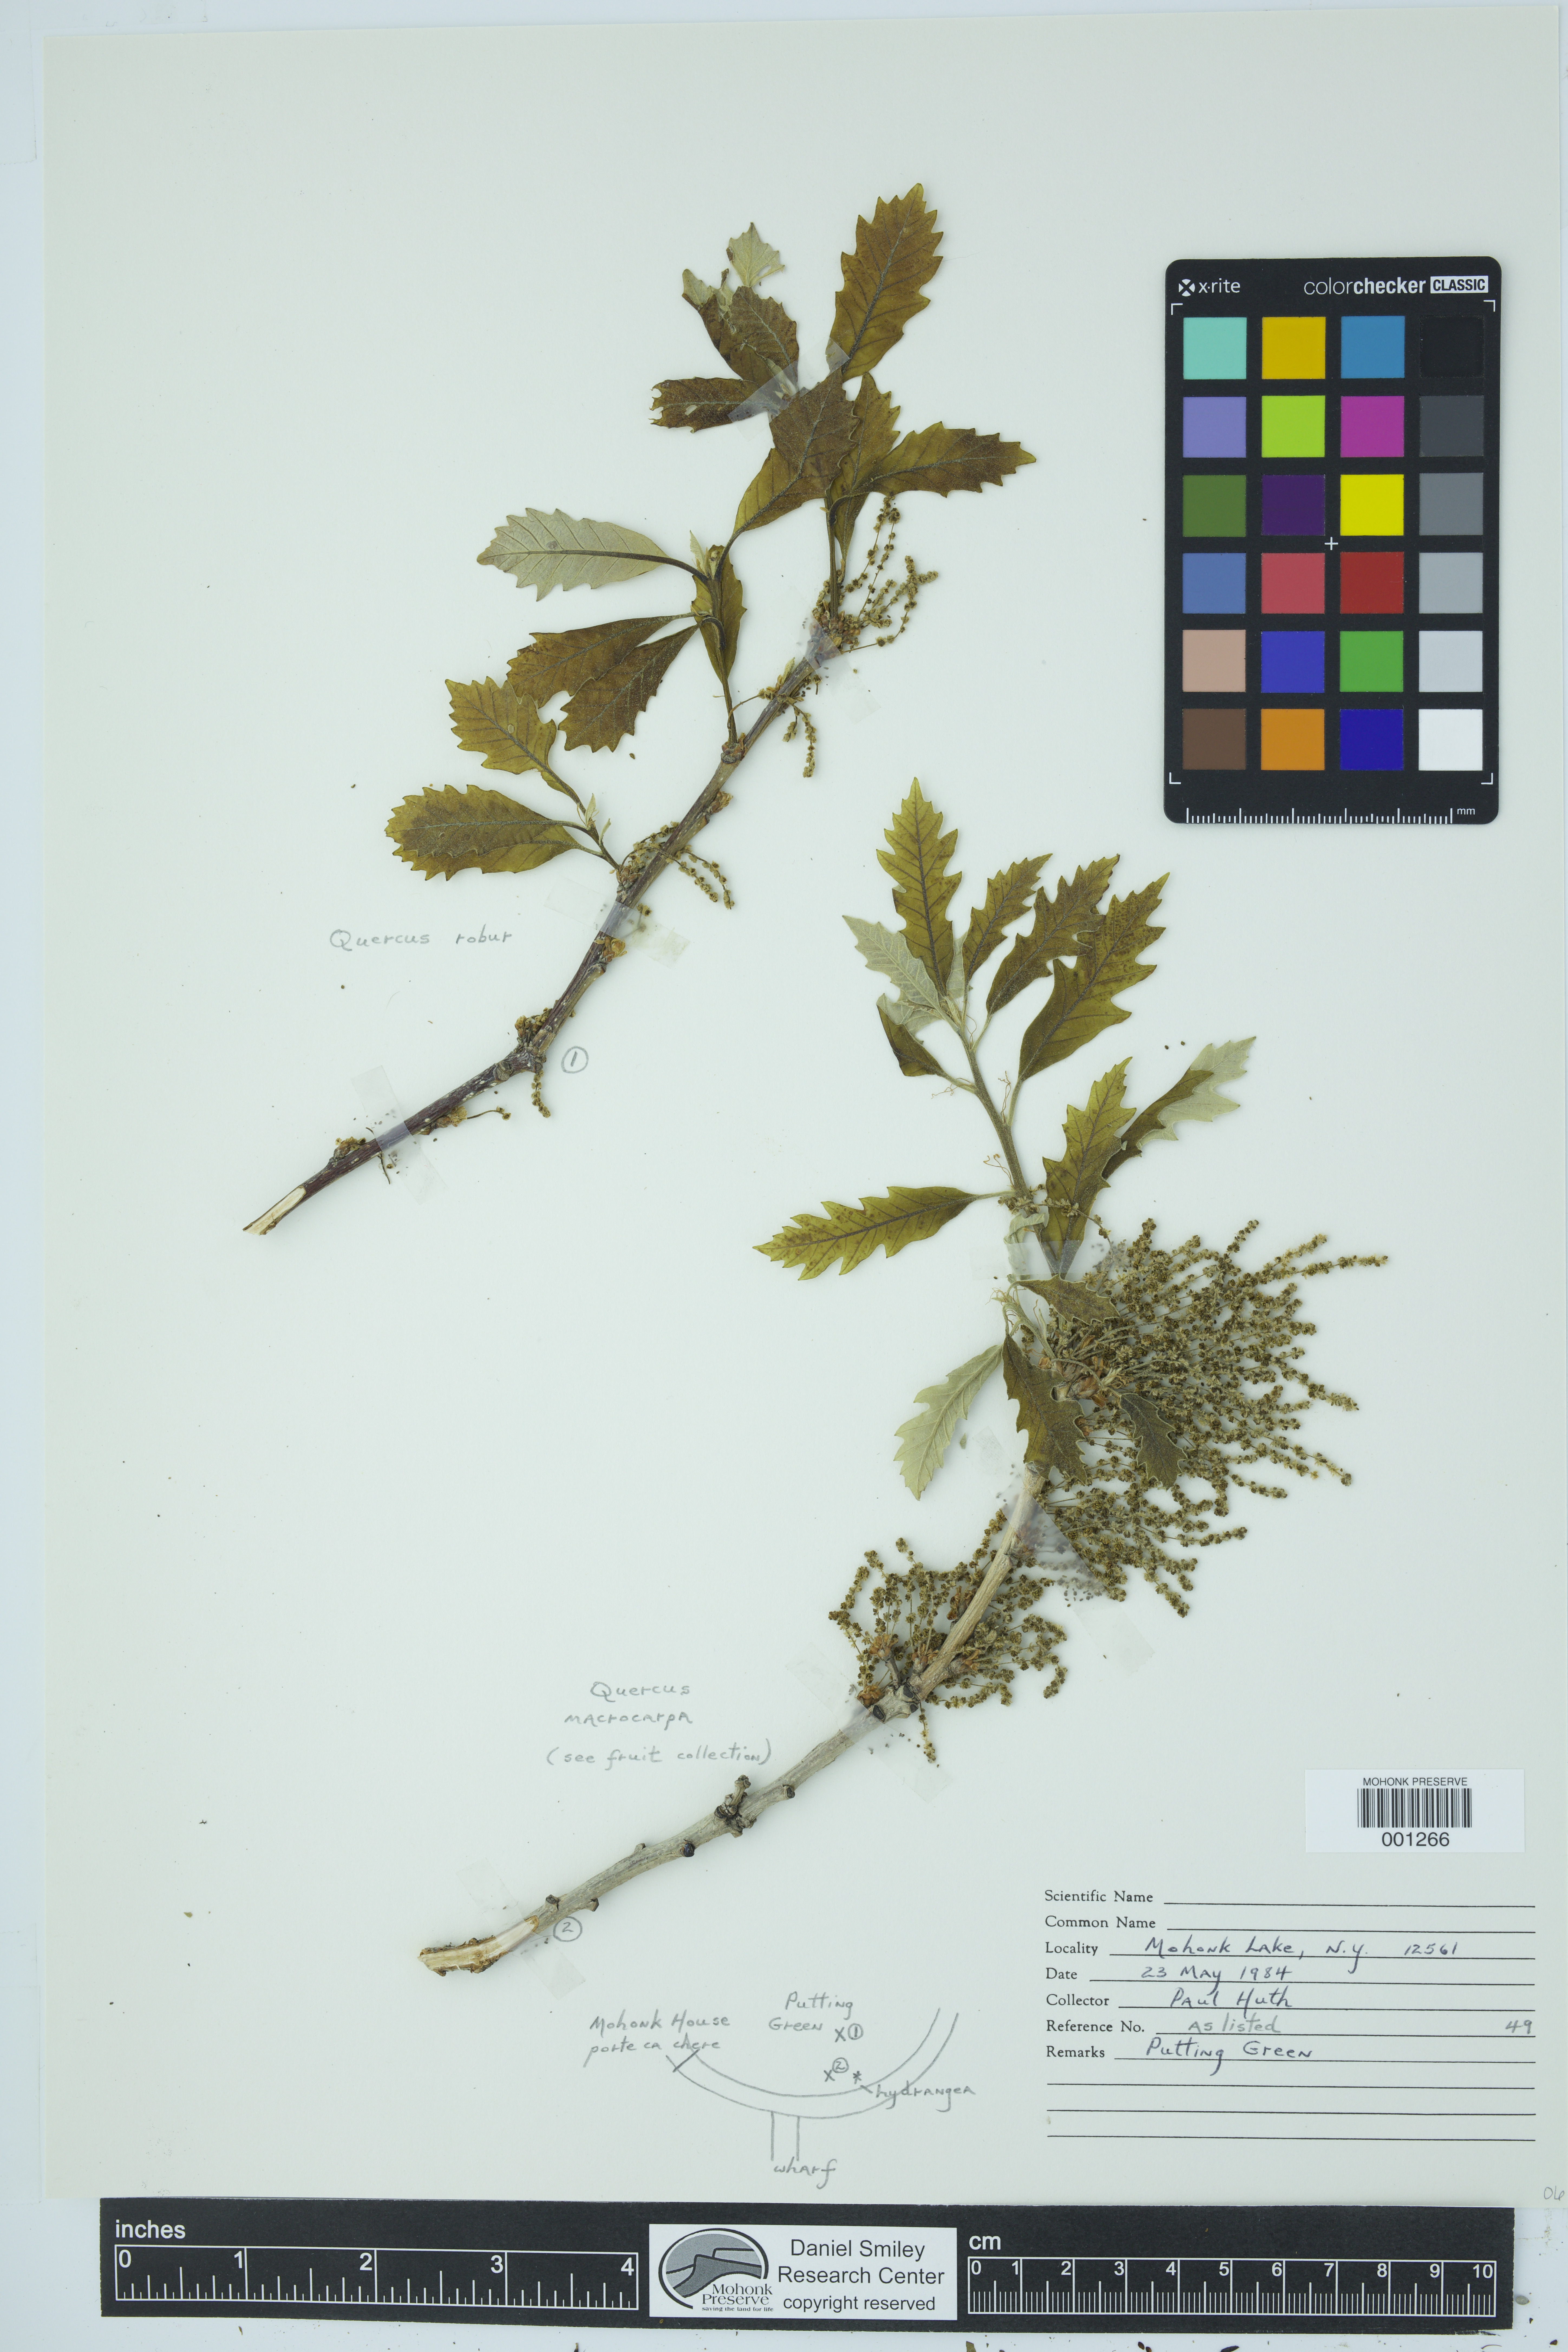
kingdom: Plantae
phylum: Tracheophyta
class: Magnoliopsida
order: Fagales
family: Fagaceae
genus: Quercus
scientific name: Quercus robur
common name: Pedunculate oak
